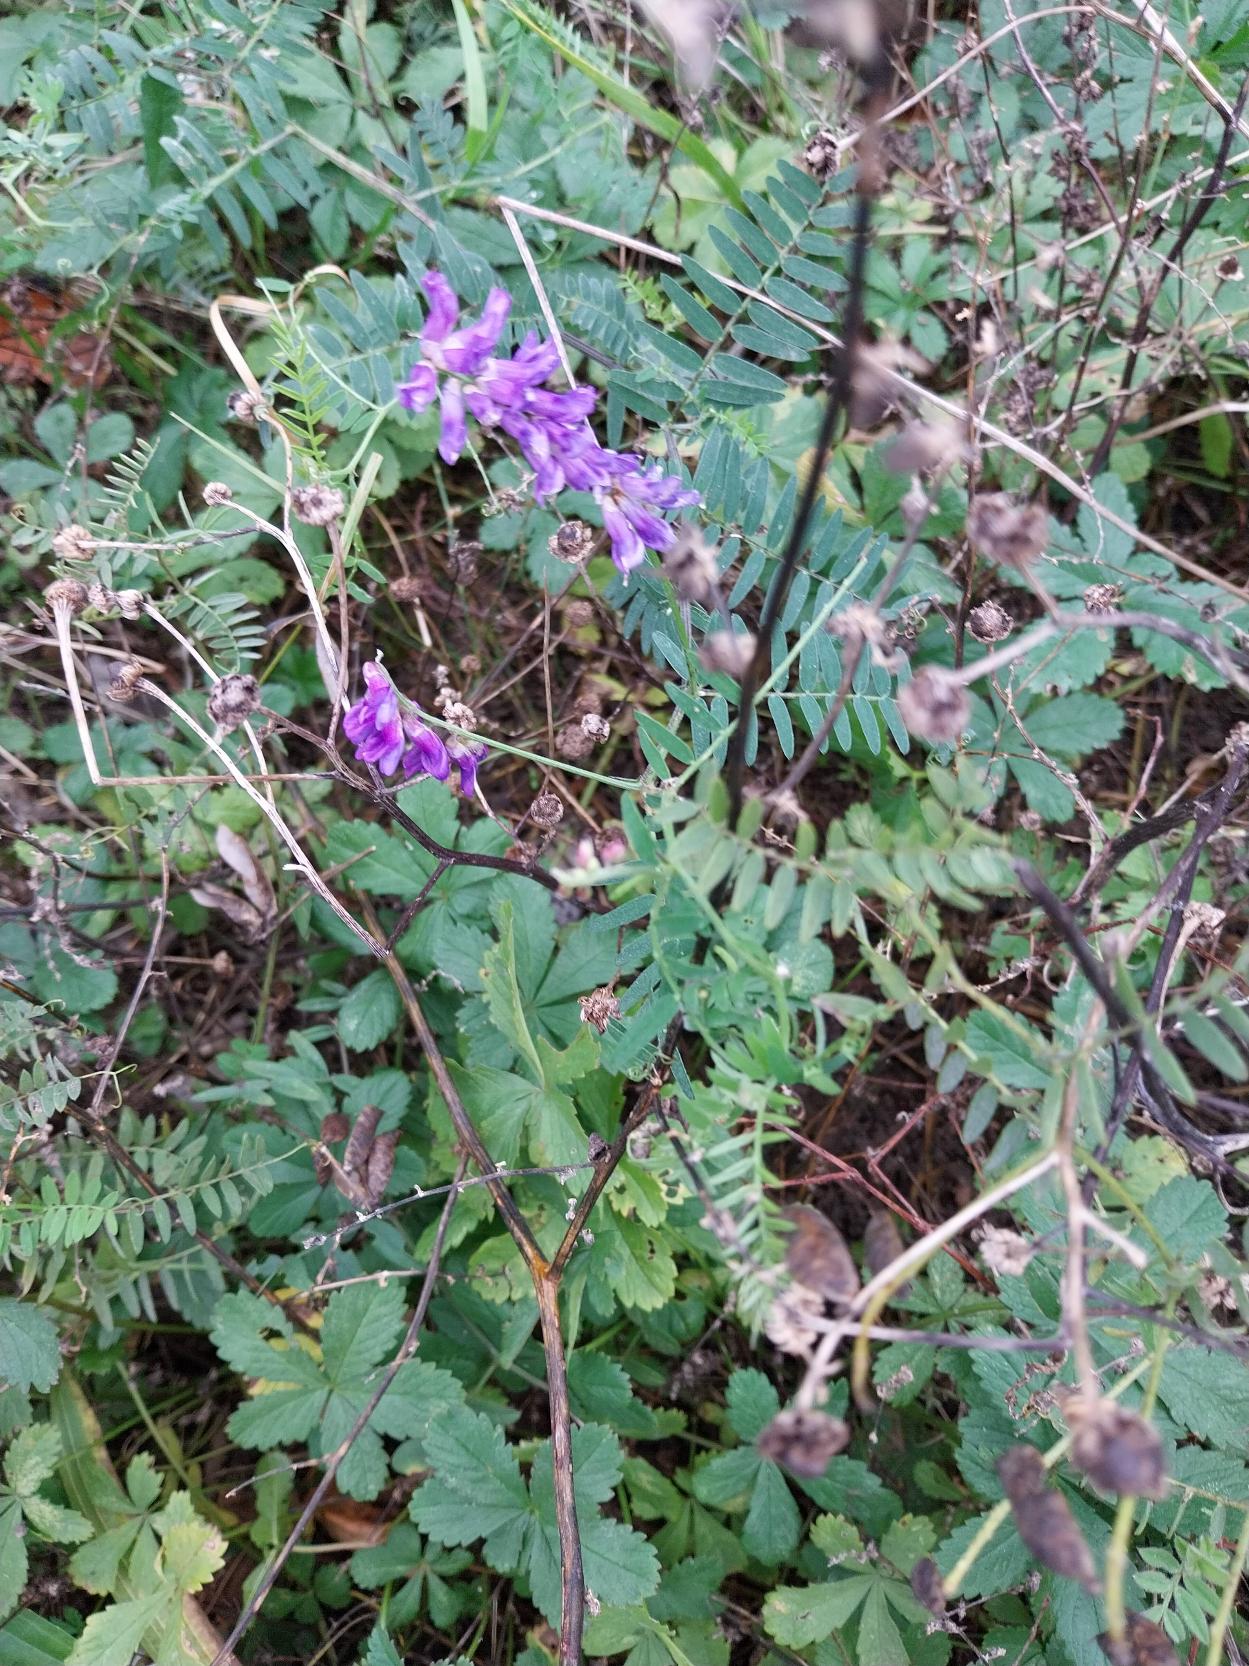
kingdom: Plantae
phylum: Tracheophyta
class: Magnoliopsida
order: Fabales
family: Fabaceae
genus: Vicia
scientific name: Vicia cracca
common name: Muse-vikke
